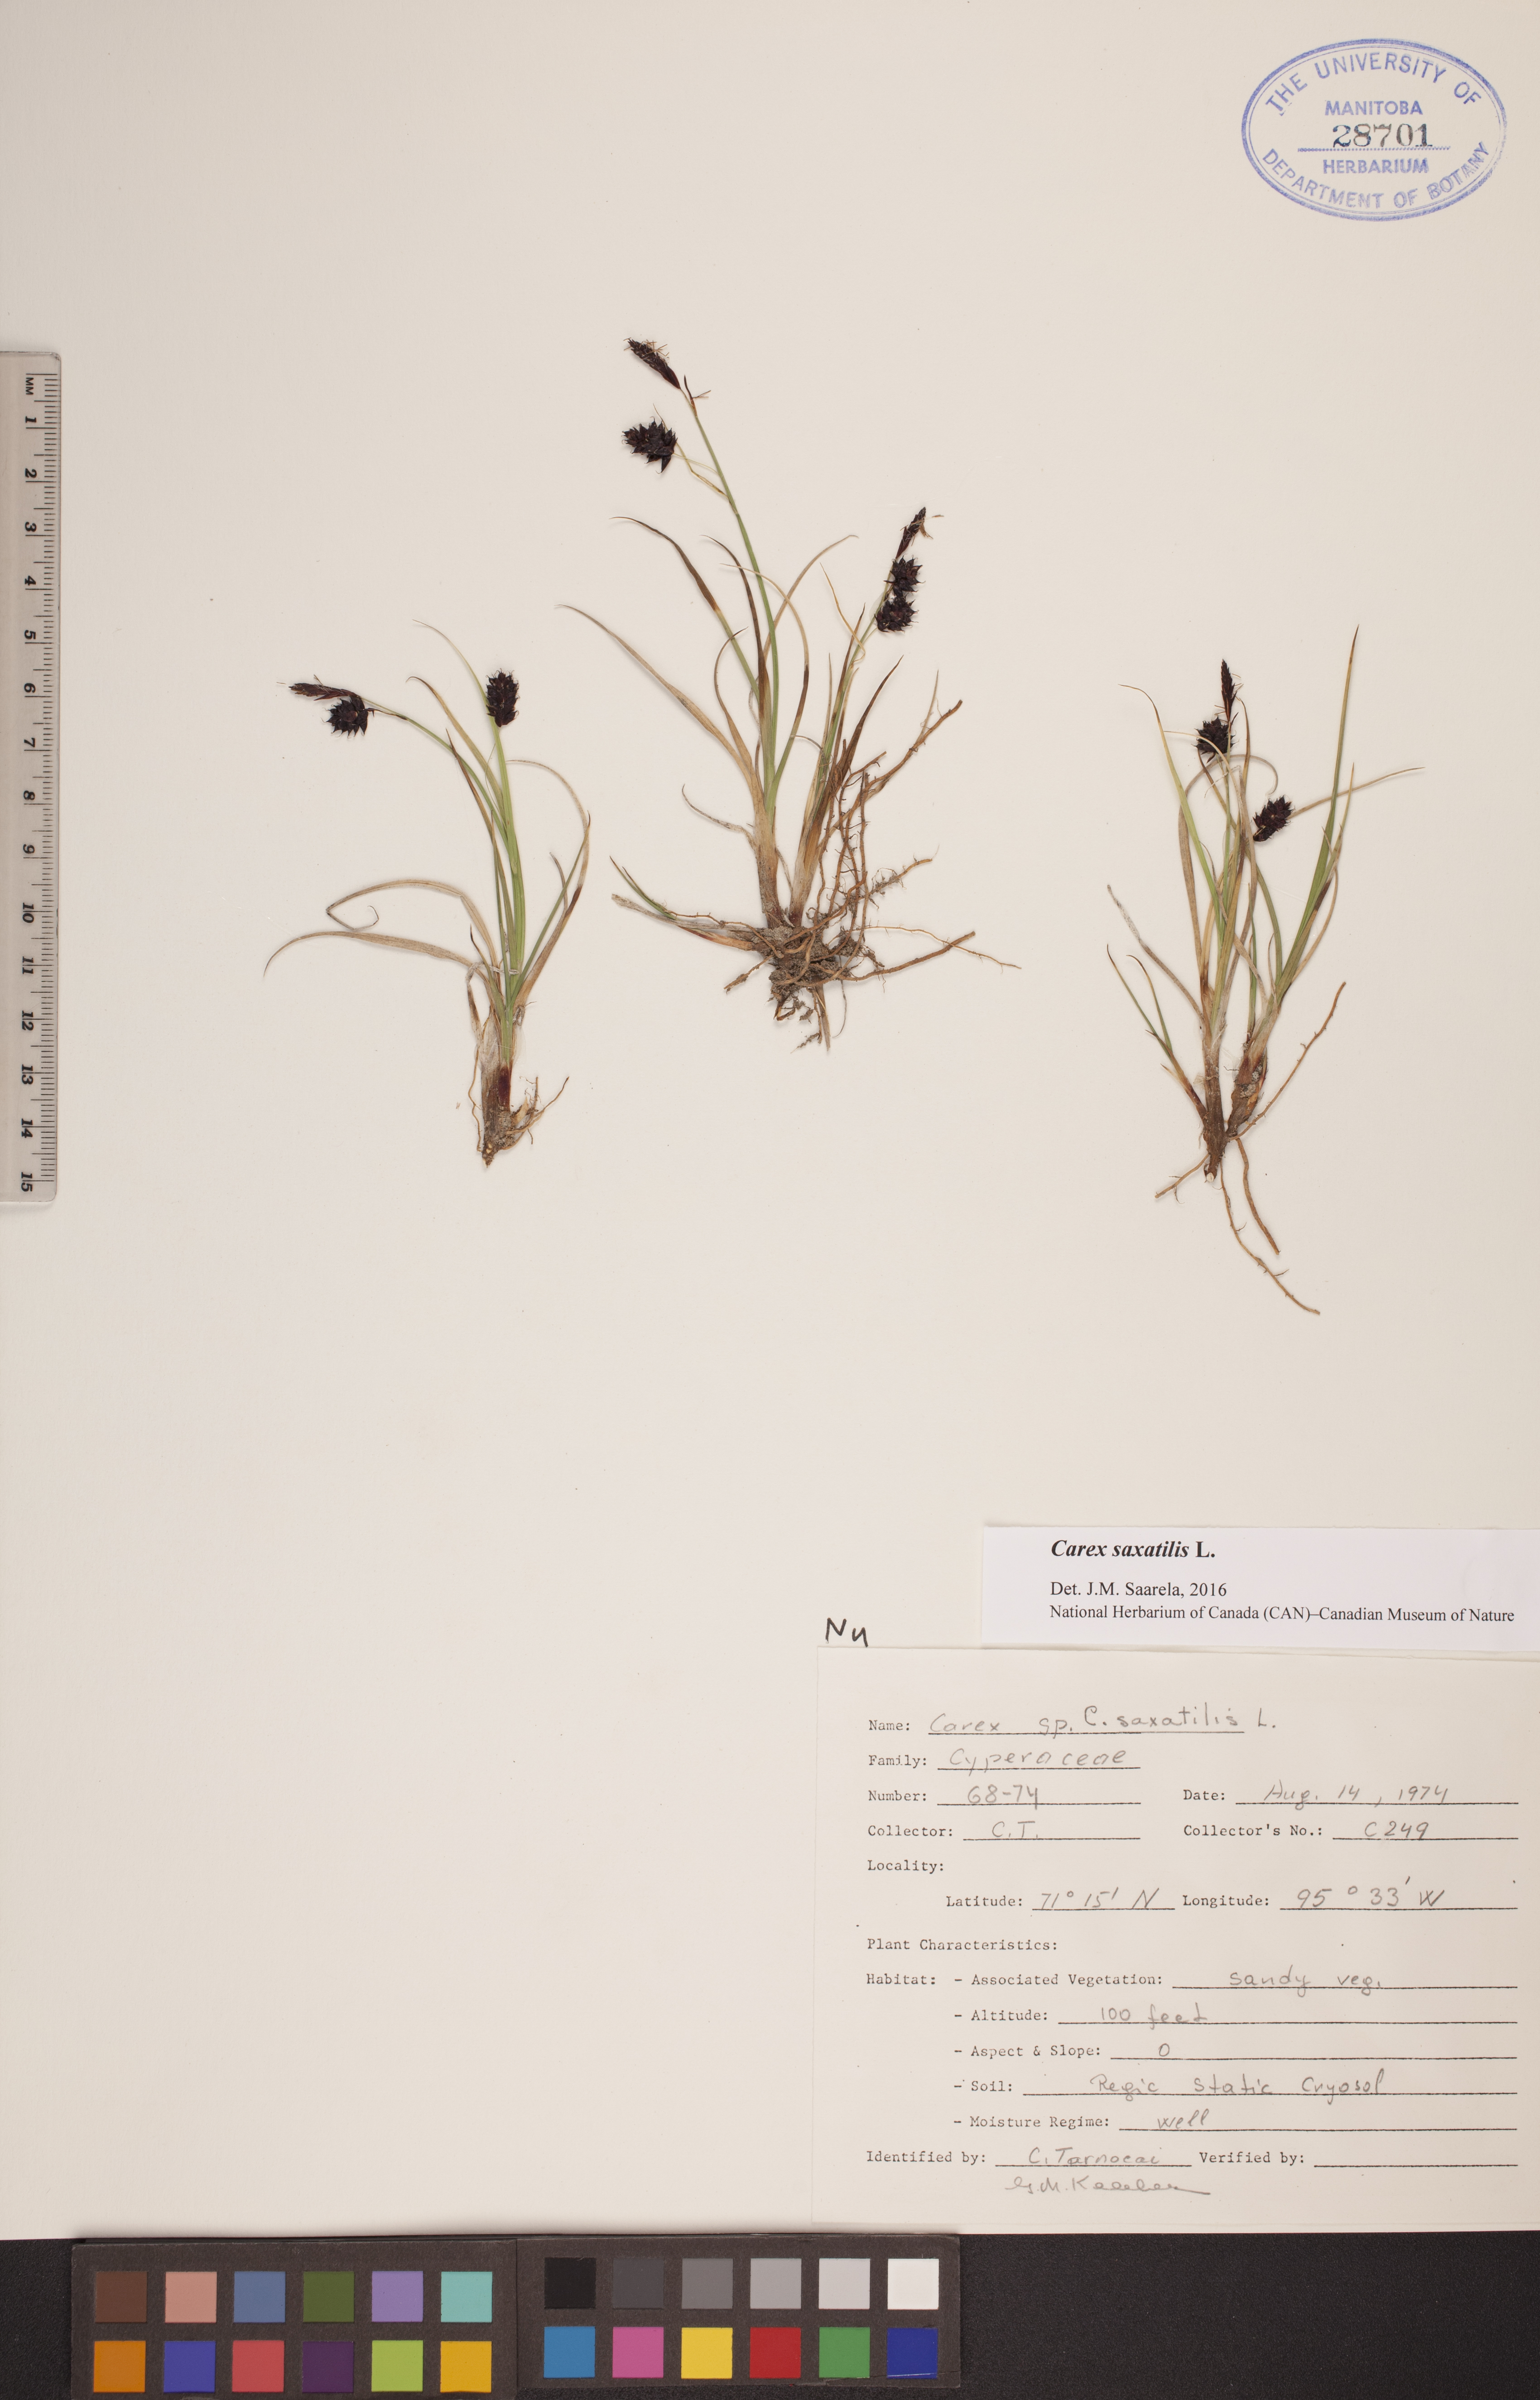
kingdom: Plantae
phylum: Tracheophyta
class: Liliopsida
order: Poales
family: Cyperaceae
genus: Carex
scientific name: Carex saxatilis
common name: Russet sedge
